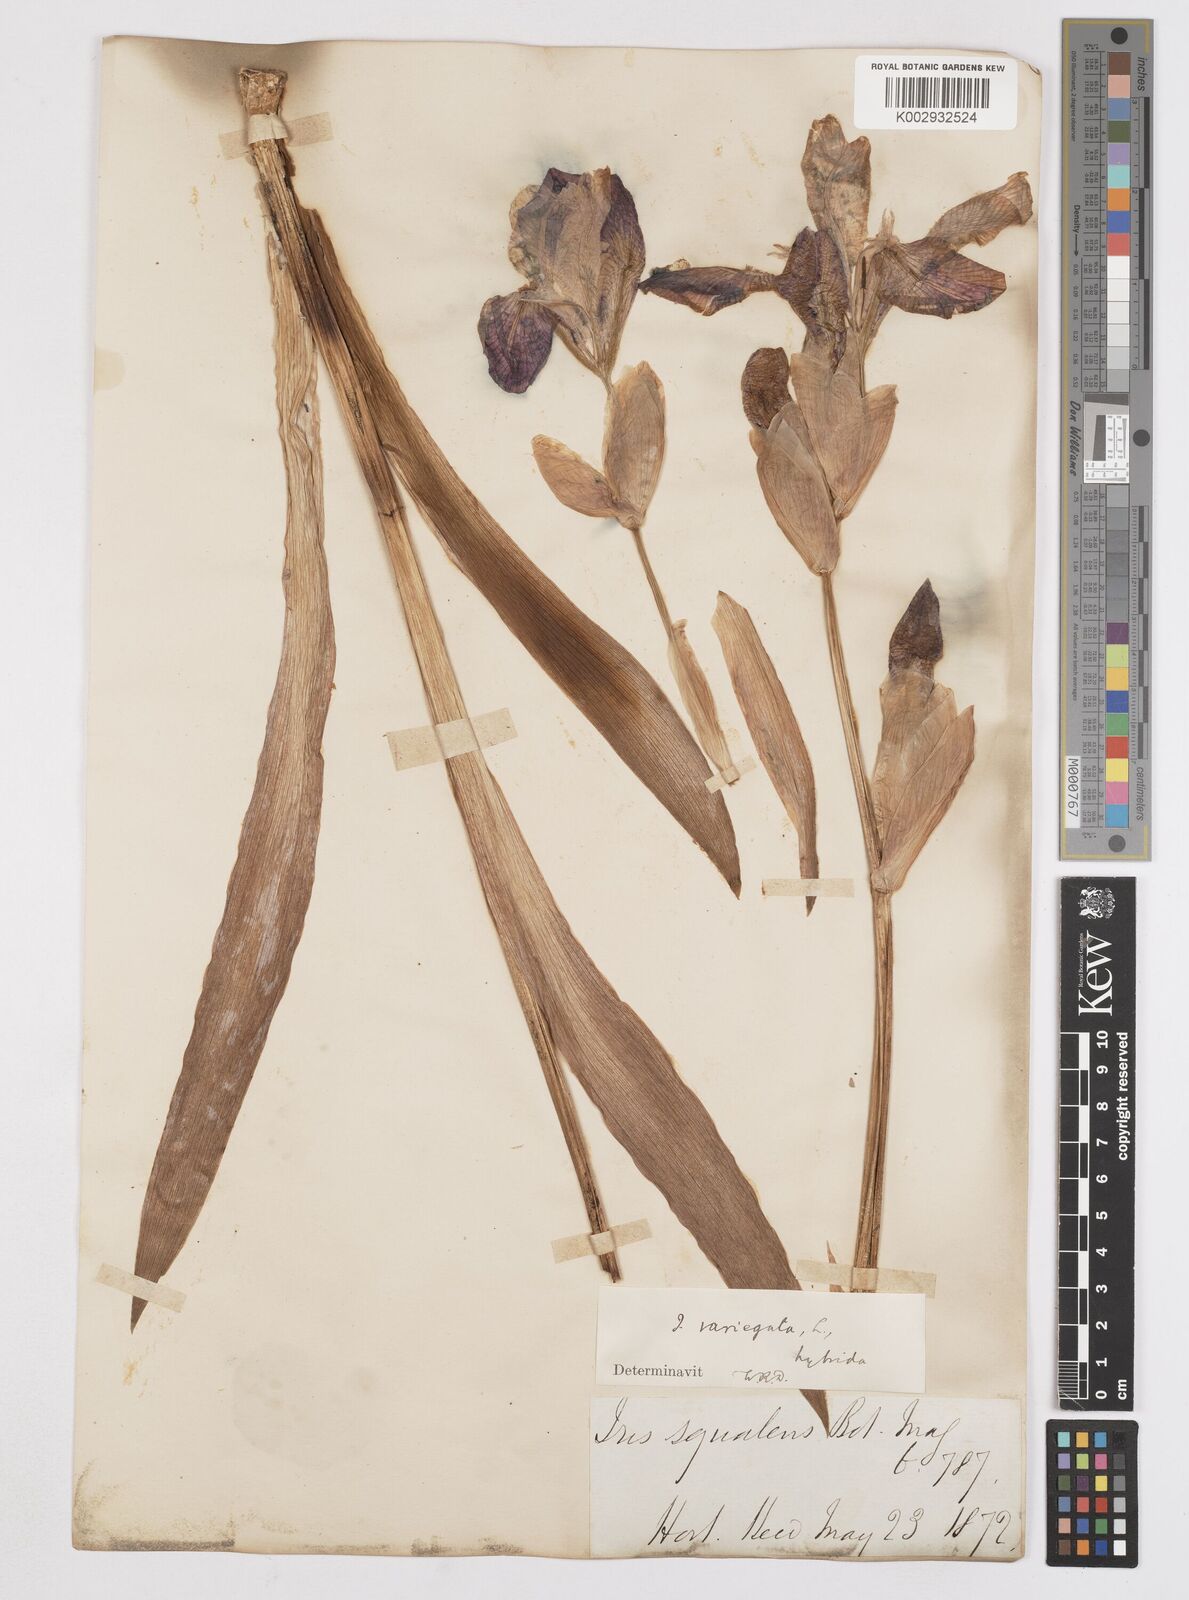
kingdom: Plantae
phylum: Tracheophyta
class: Liliopsida
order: Asparagales
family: Iridaceae
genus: Iris
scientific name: Iris
